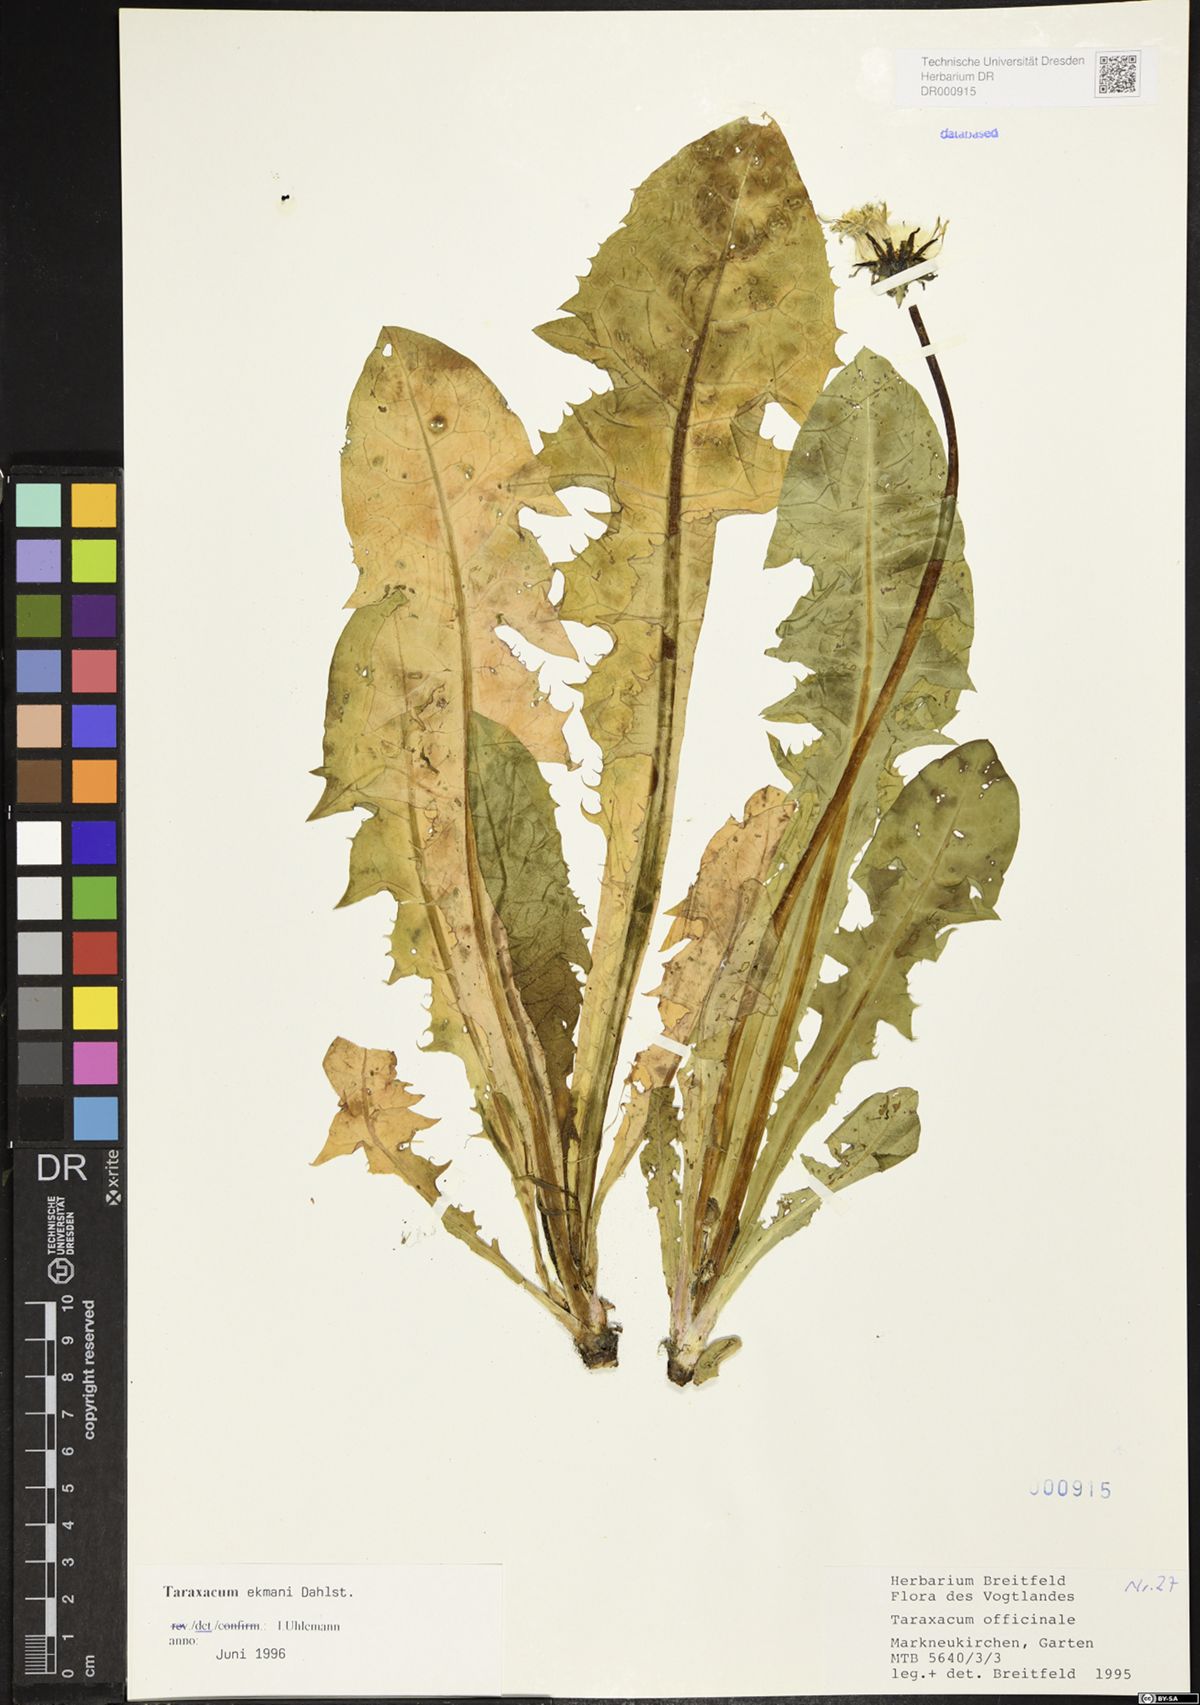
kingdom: Plantae
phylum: Tracheophyta
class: Magnoliopsida
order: Asterales
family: Asteraceae
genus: Taraxacum
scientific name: Taraxacum ekmanii
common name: Ekman's dandelion
